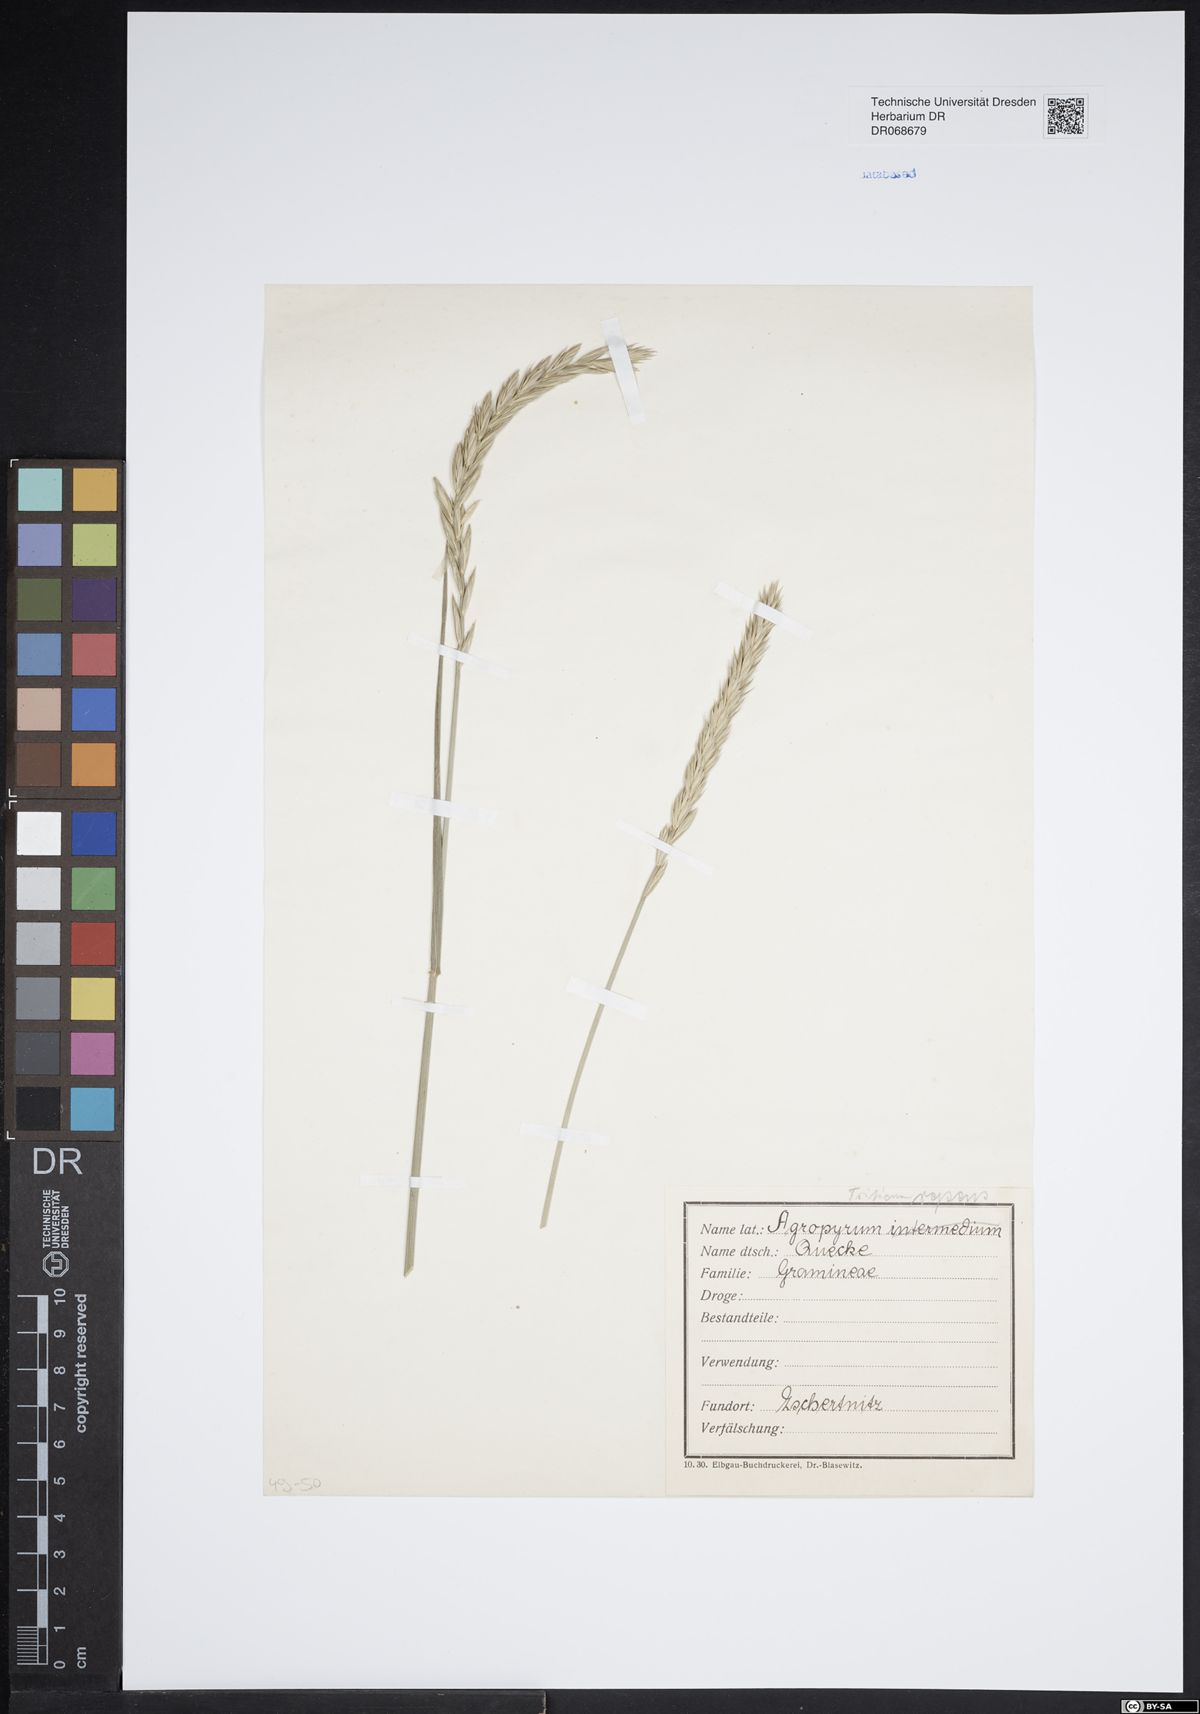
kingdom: Plantae
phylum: Tracheophyta
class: Liliopsida
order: Poales
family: Poaceae
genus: Elymus
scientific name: Elymus repens
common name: Quackgrass
